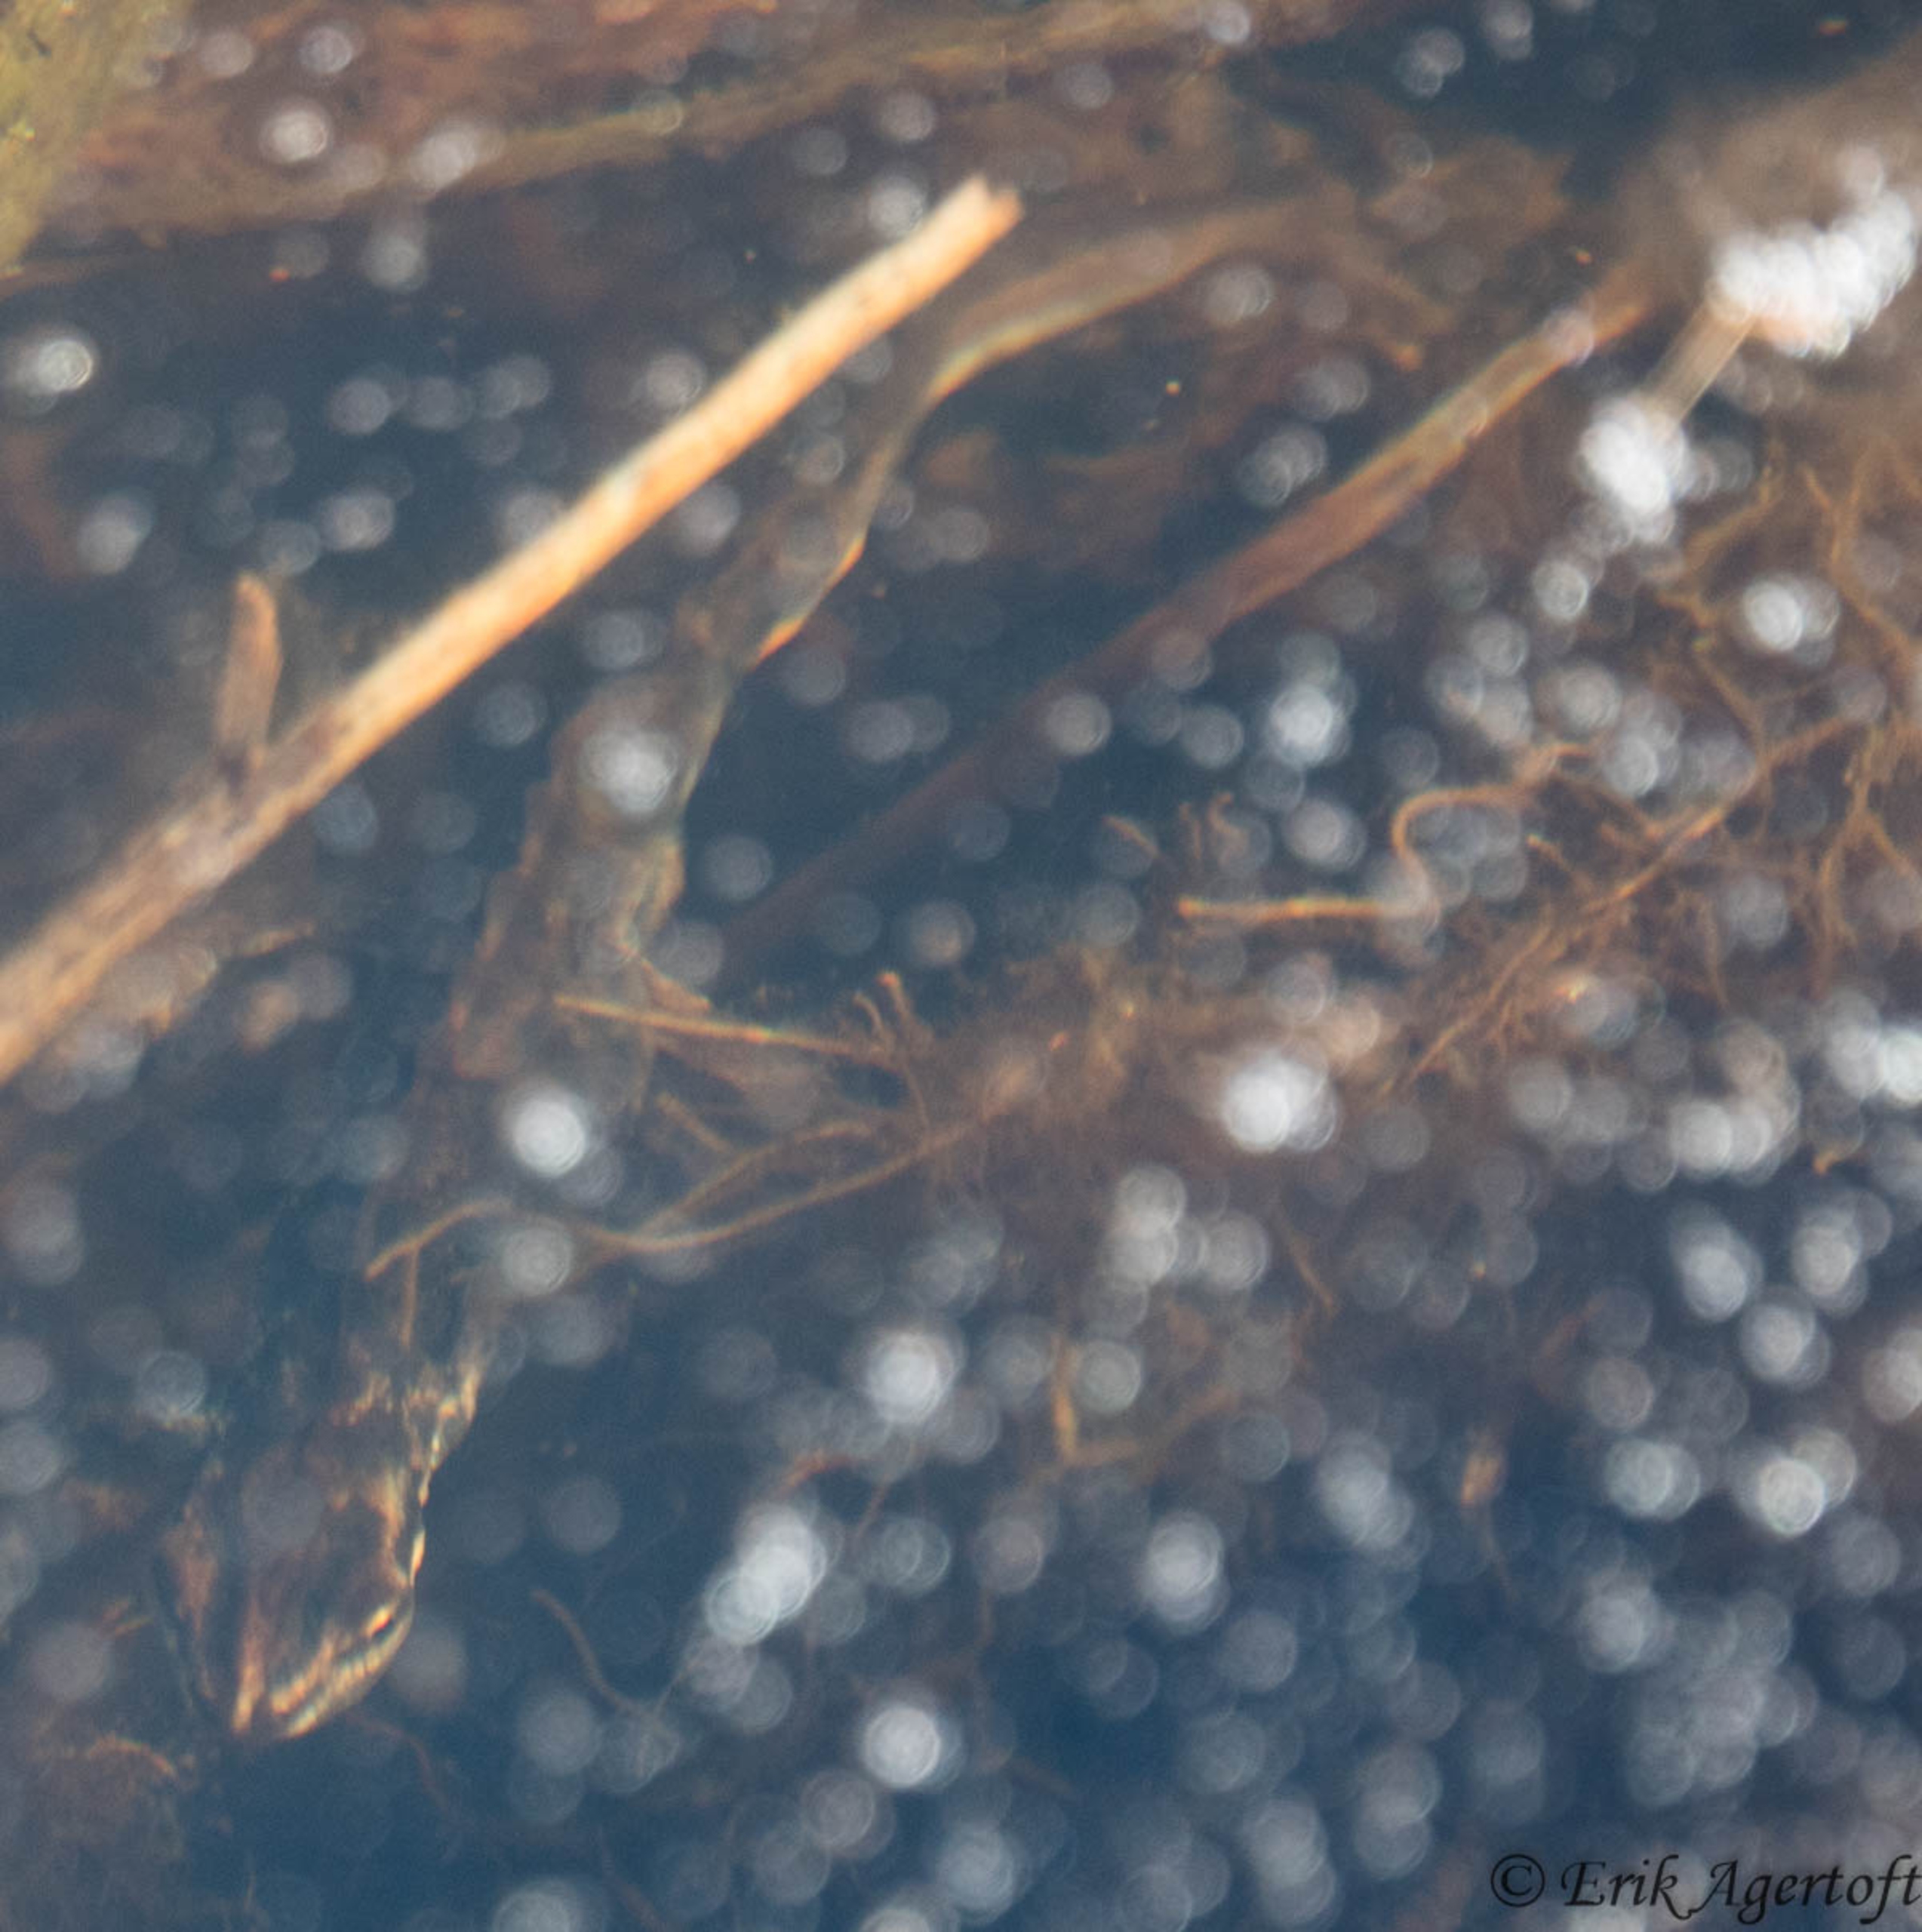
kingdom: Animalia
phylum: Chordata
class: Amphibia
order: Caudata
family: Salamandridae
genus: Lissotriton
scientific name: Lissotriton vulgaris
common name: Lille vandsalamander
